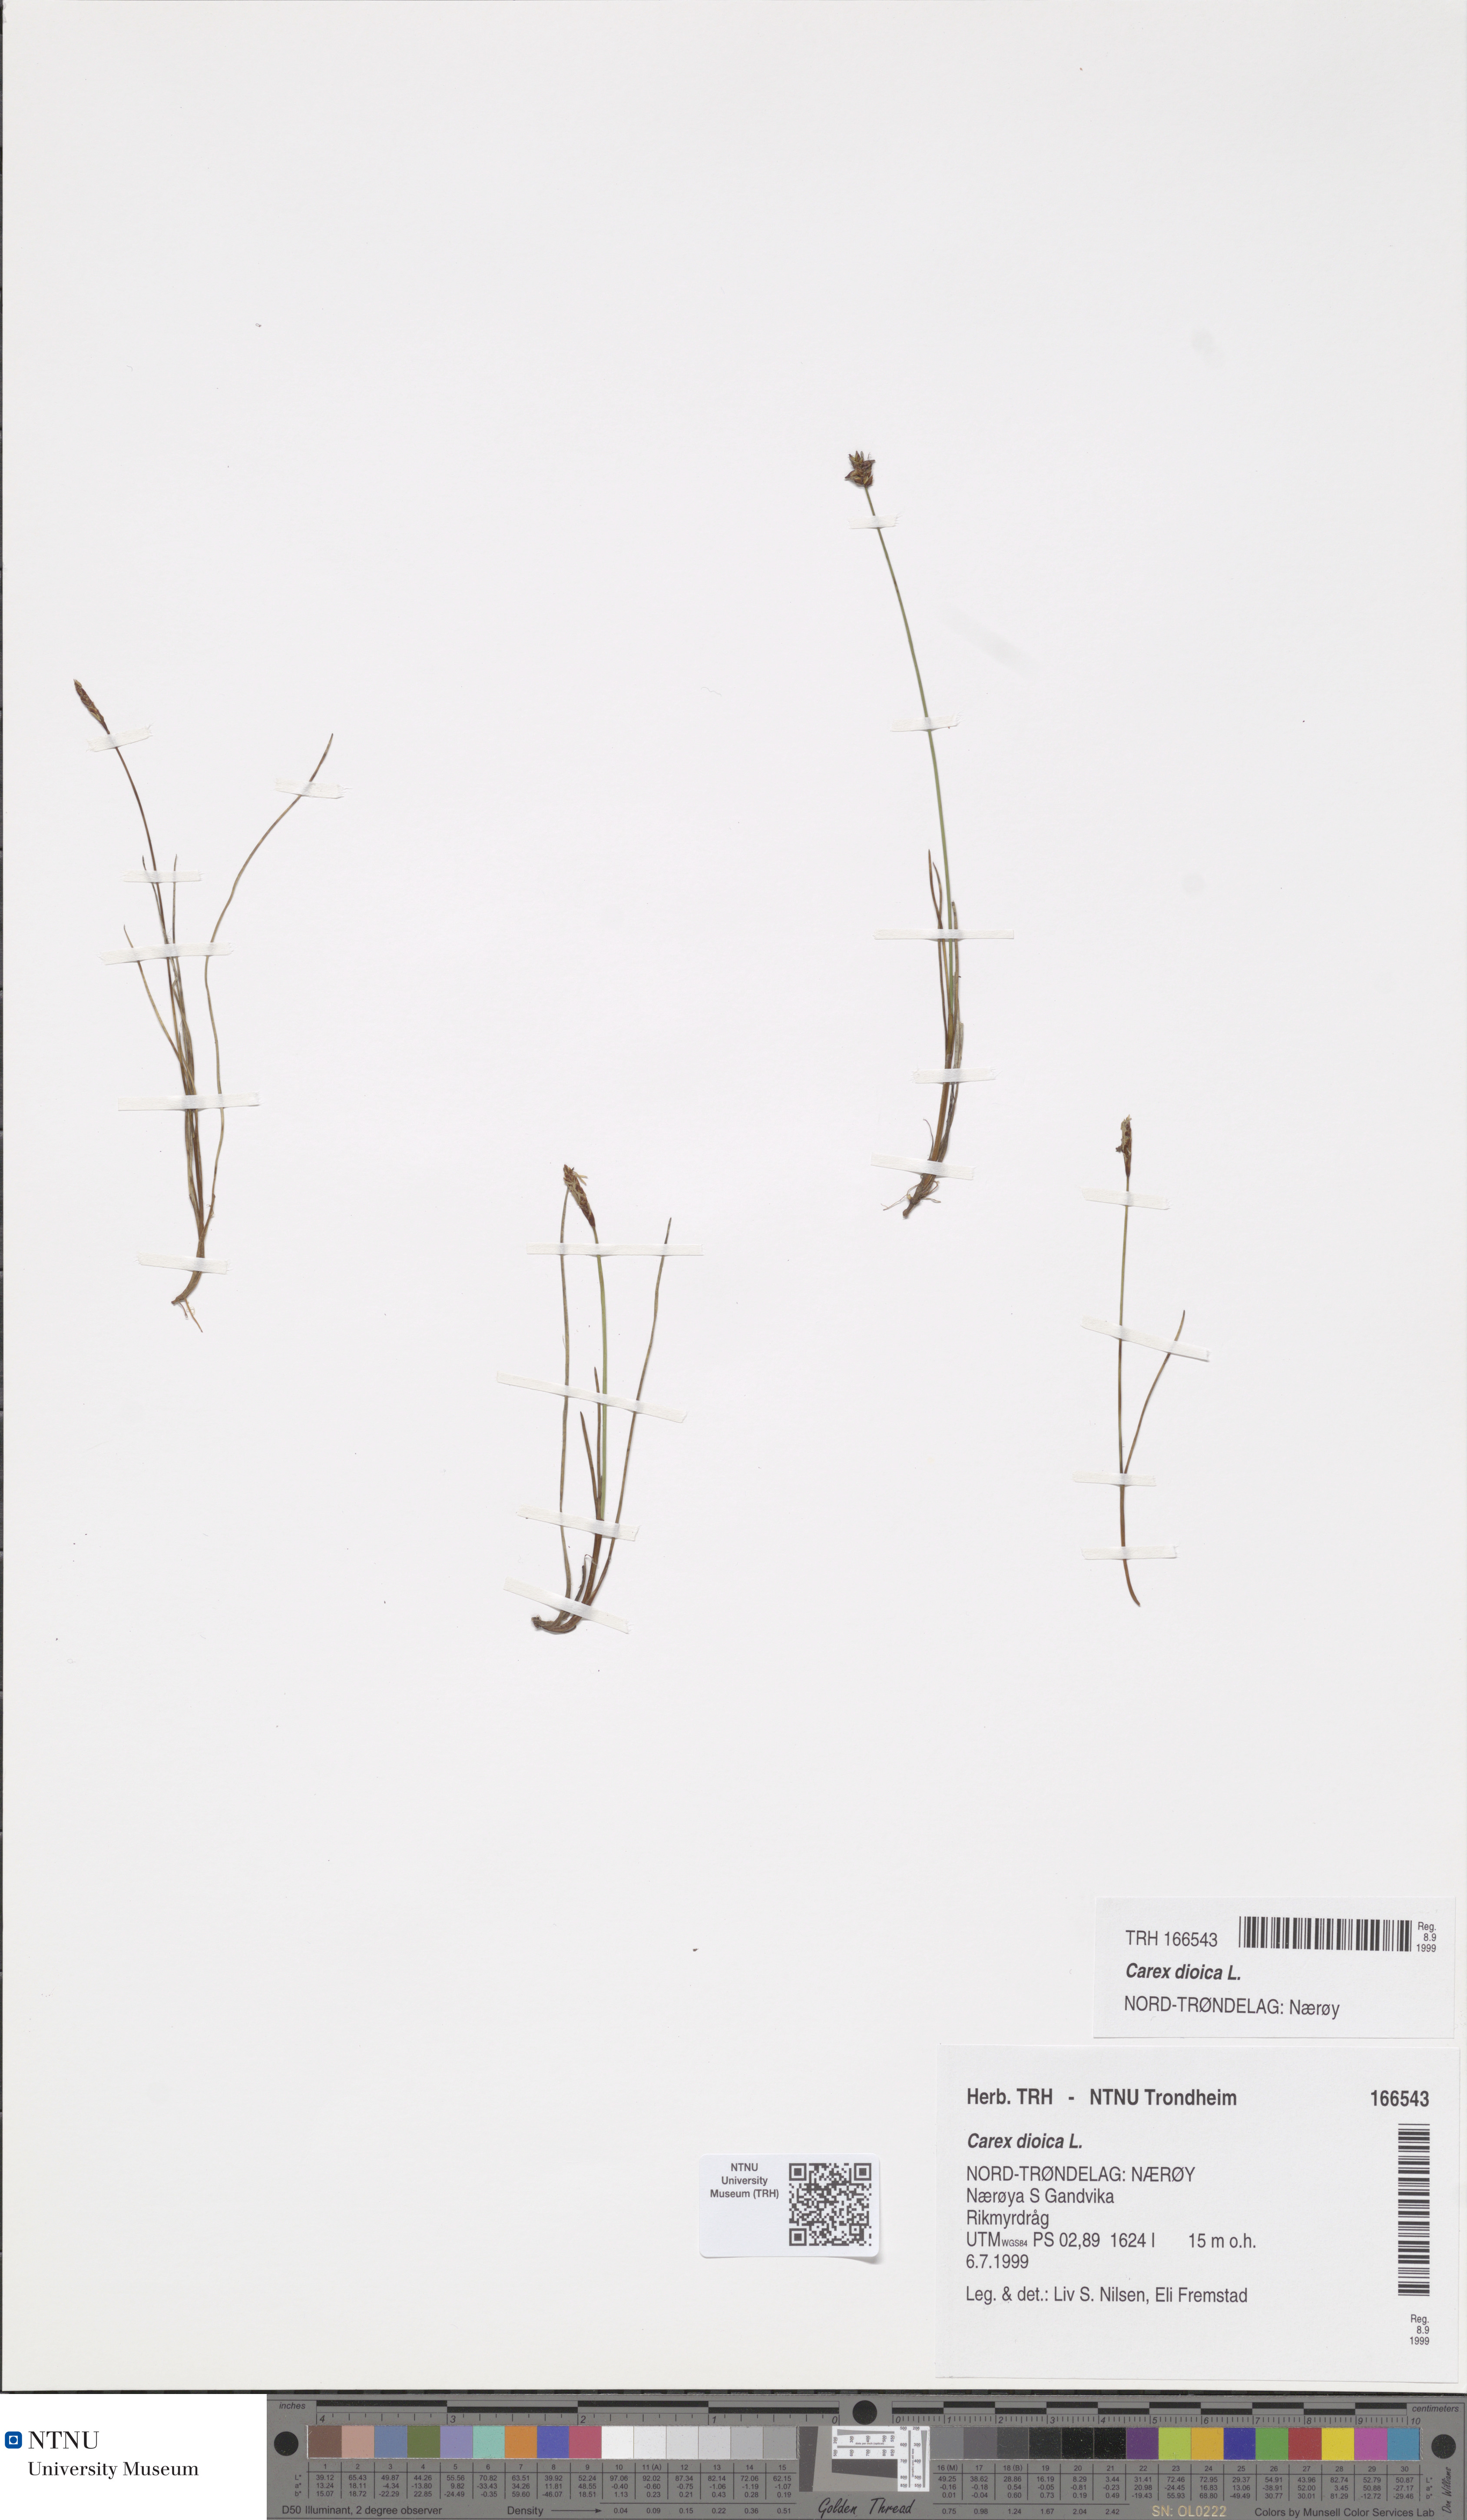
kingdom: Plantae
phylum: Tracheophyta
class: Liliopsida
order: Poales
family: Cyperaceae
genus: Carex
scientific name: Carex dioica
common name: Dioecious sedge
